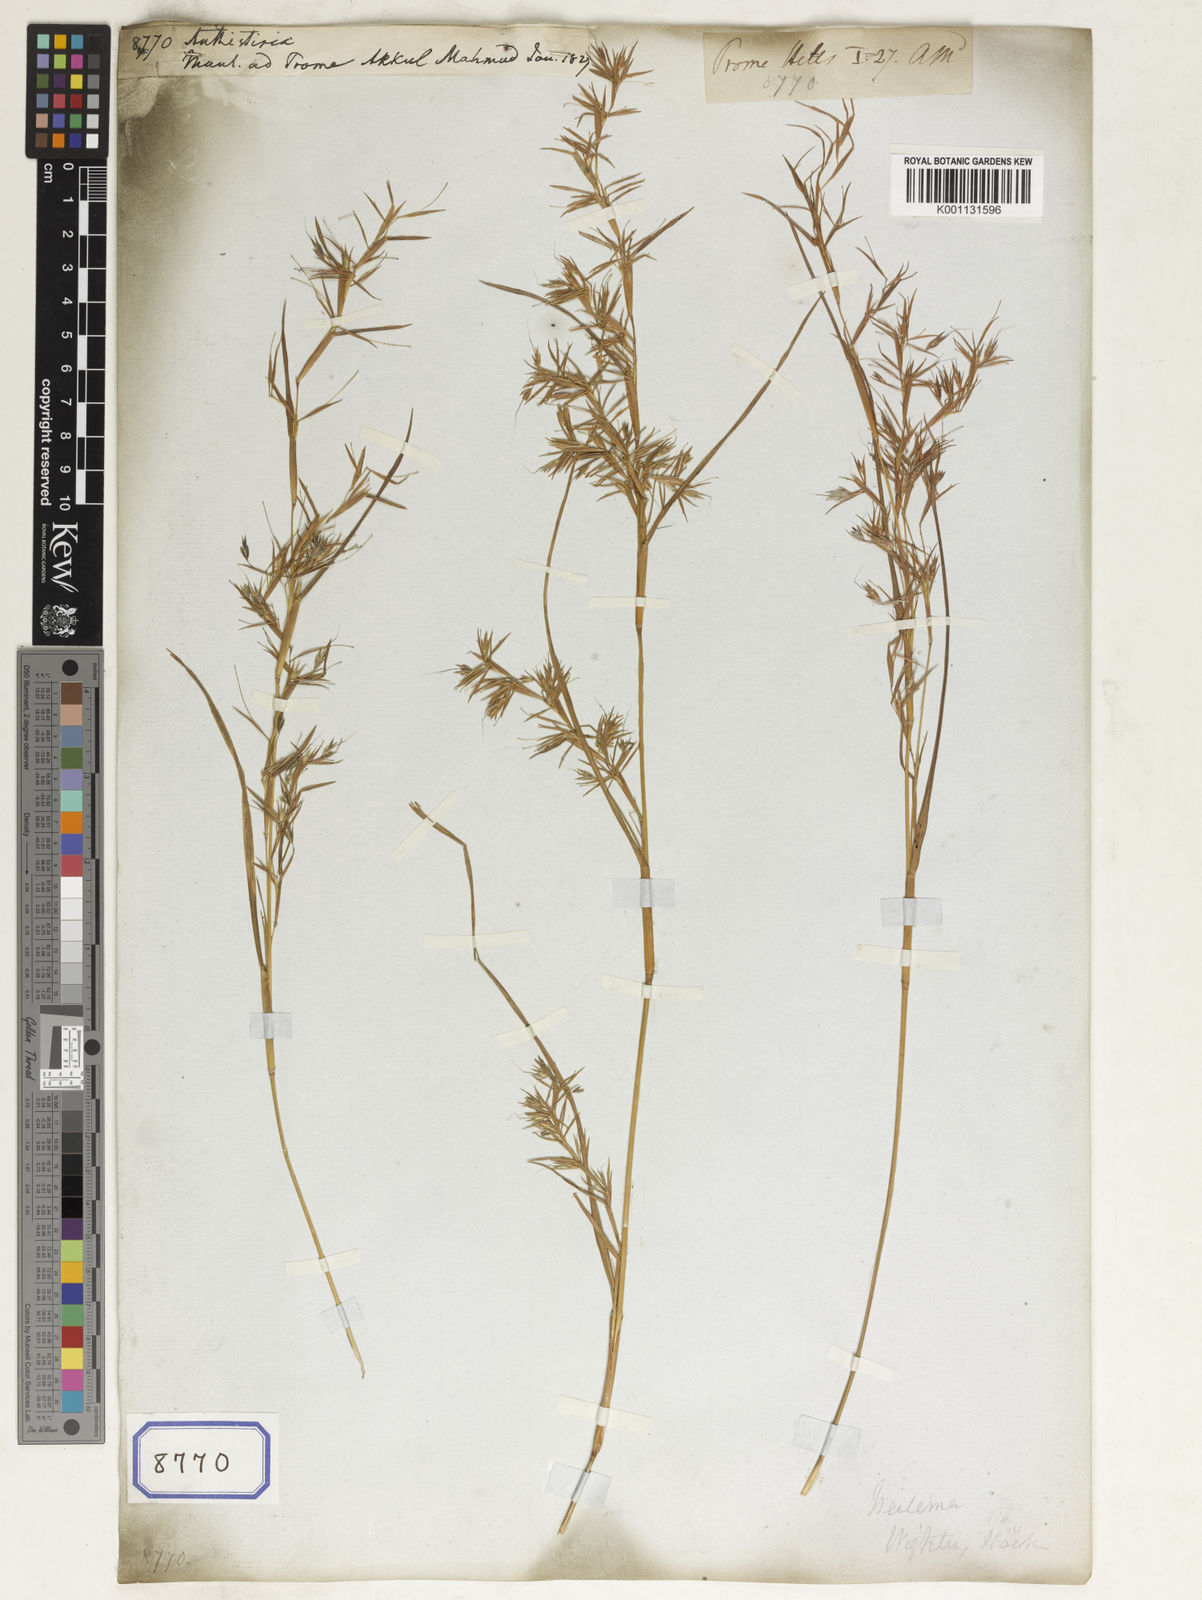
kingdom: Plantae
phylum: Tracheophyta
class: Liliopsida
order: Poales
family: Poaceae
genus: Themeda
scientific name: Themeda
